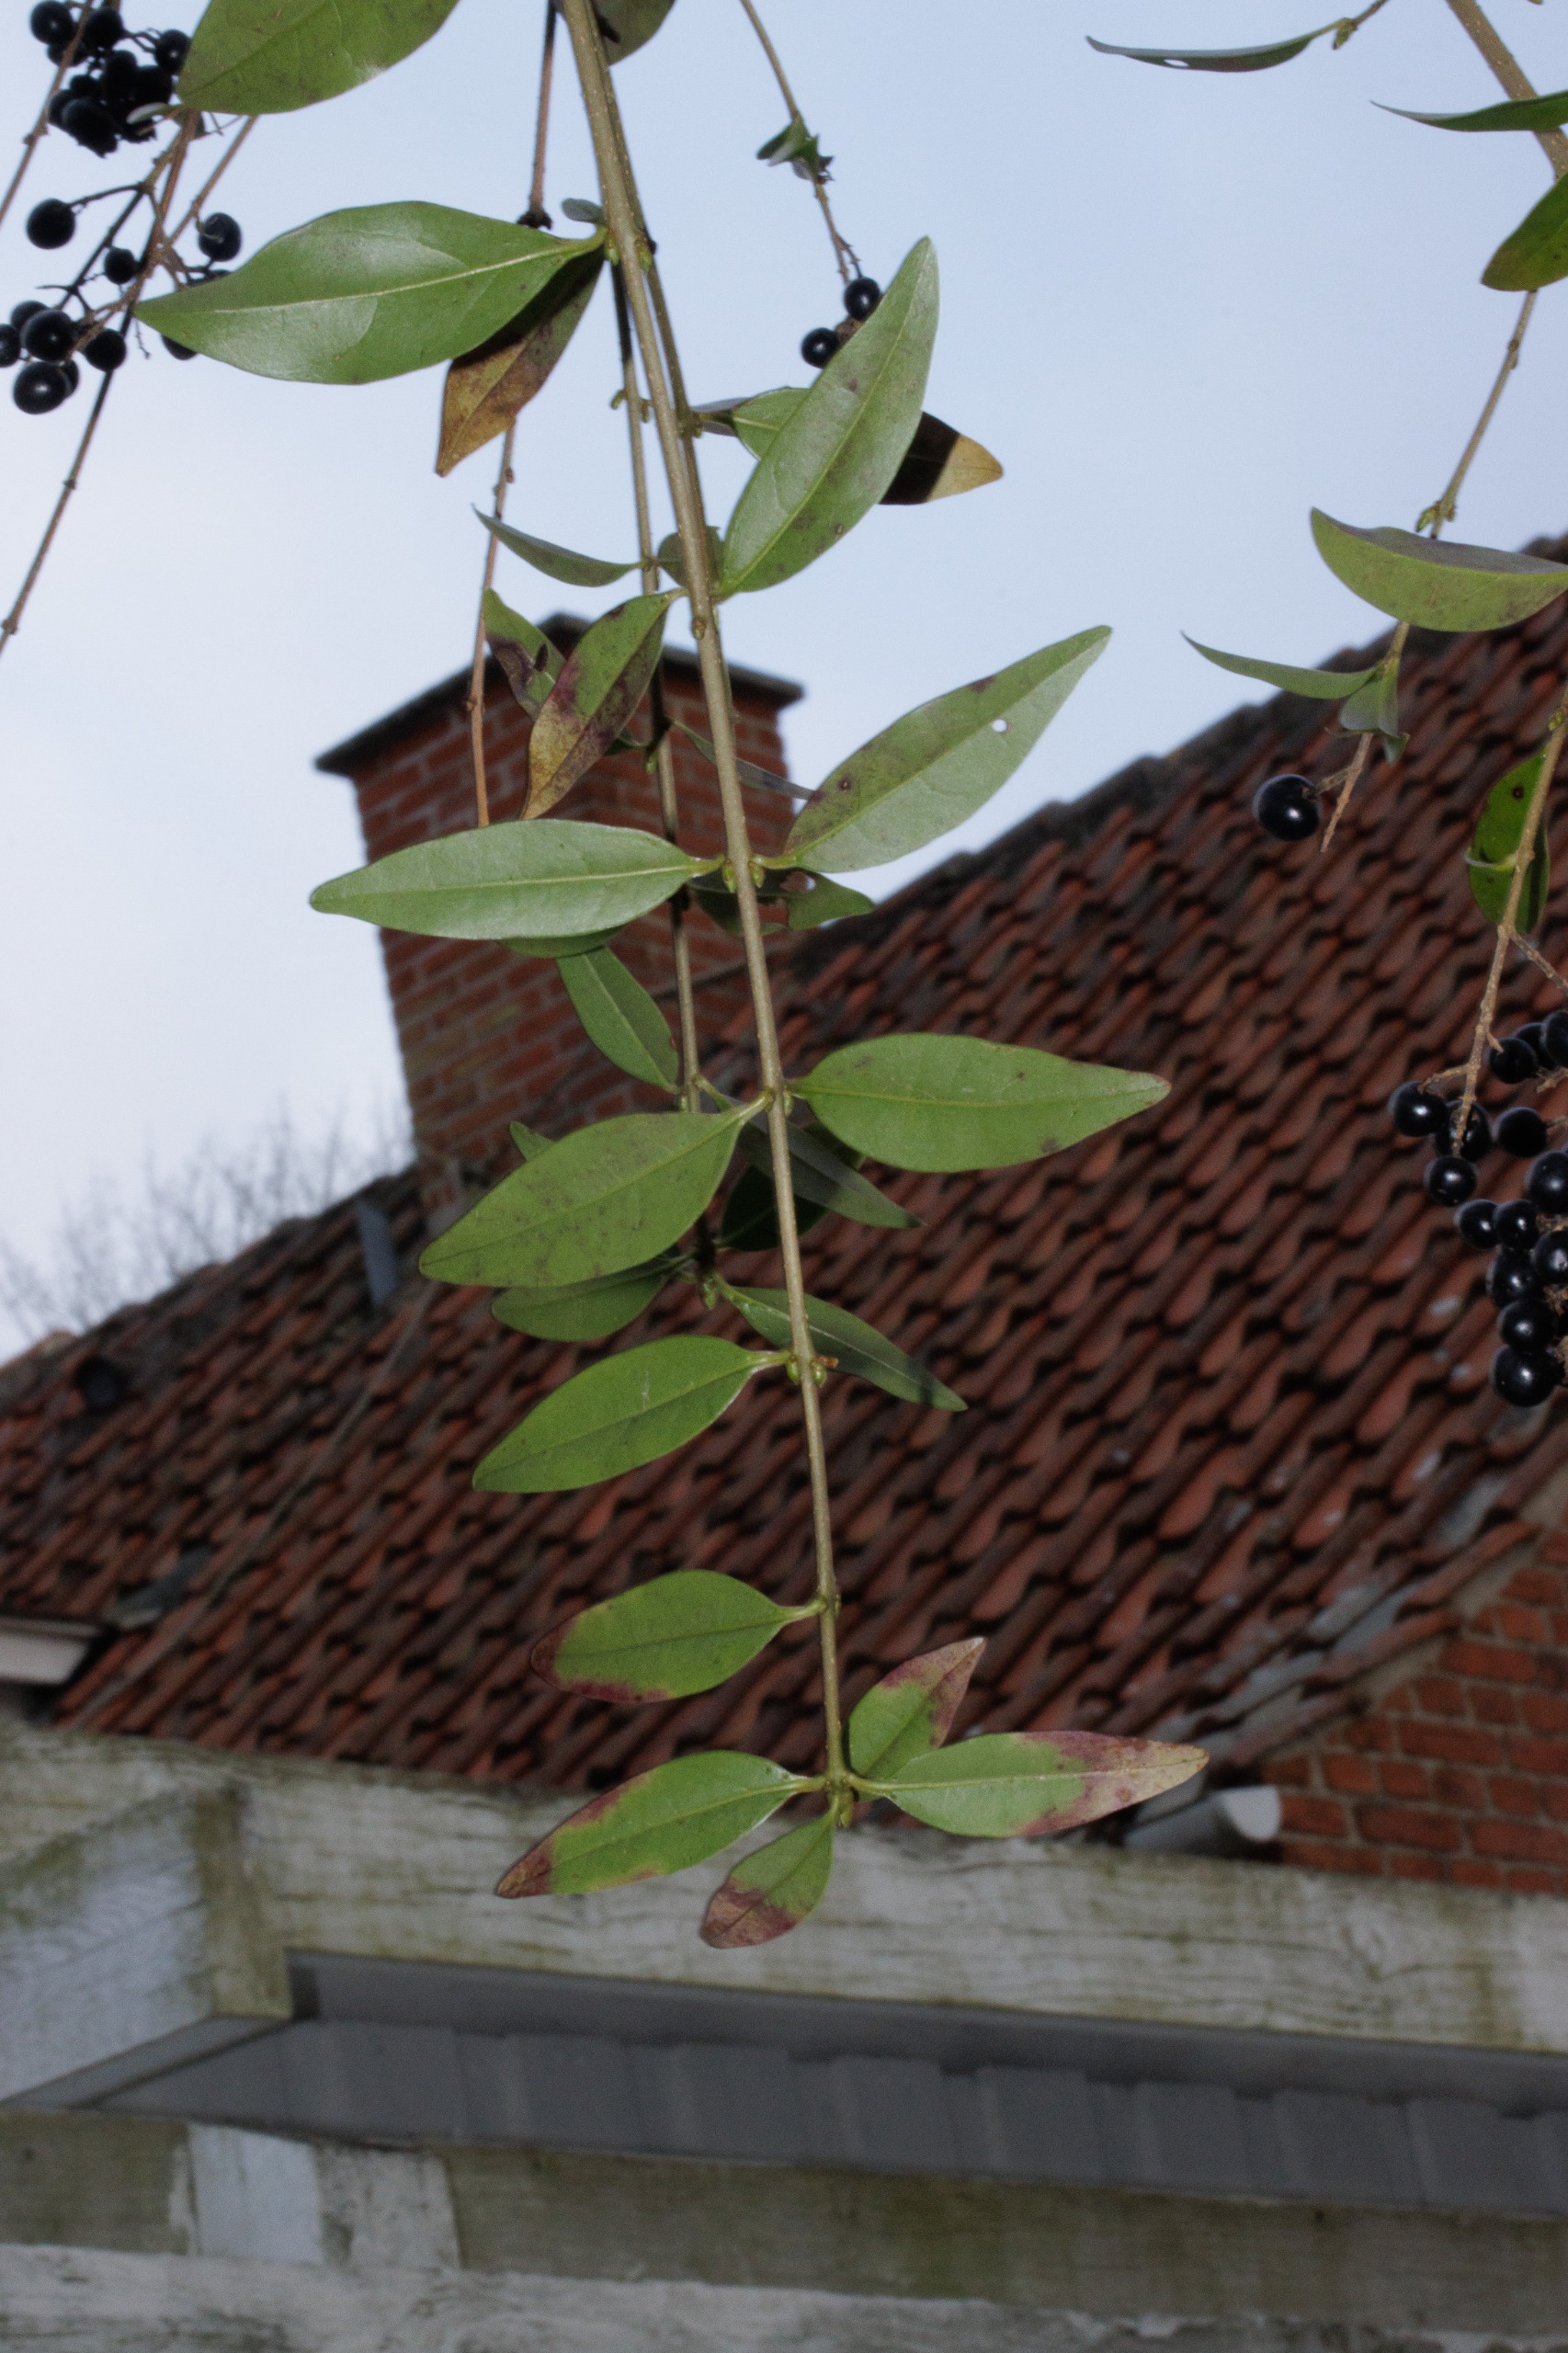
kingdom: Plantae
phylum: Tracheophyta
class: Magnoliopsida
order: Lamiales
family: Oleaceae
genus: Ligustrum
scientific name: Ligustrum vulgare
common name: Liguster
